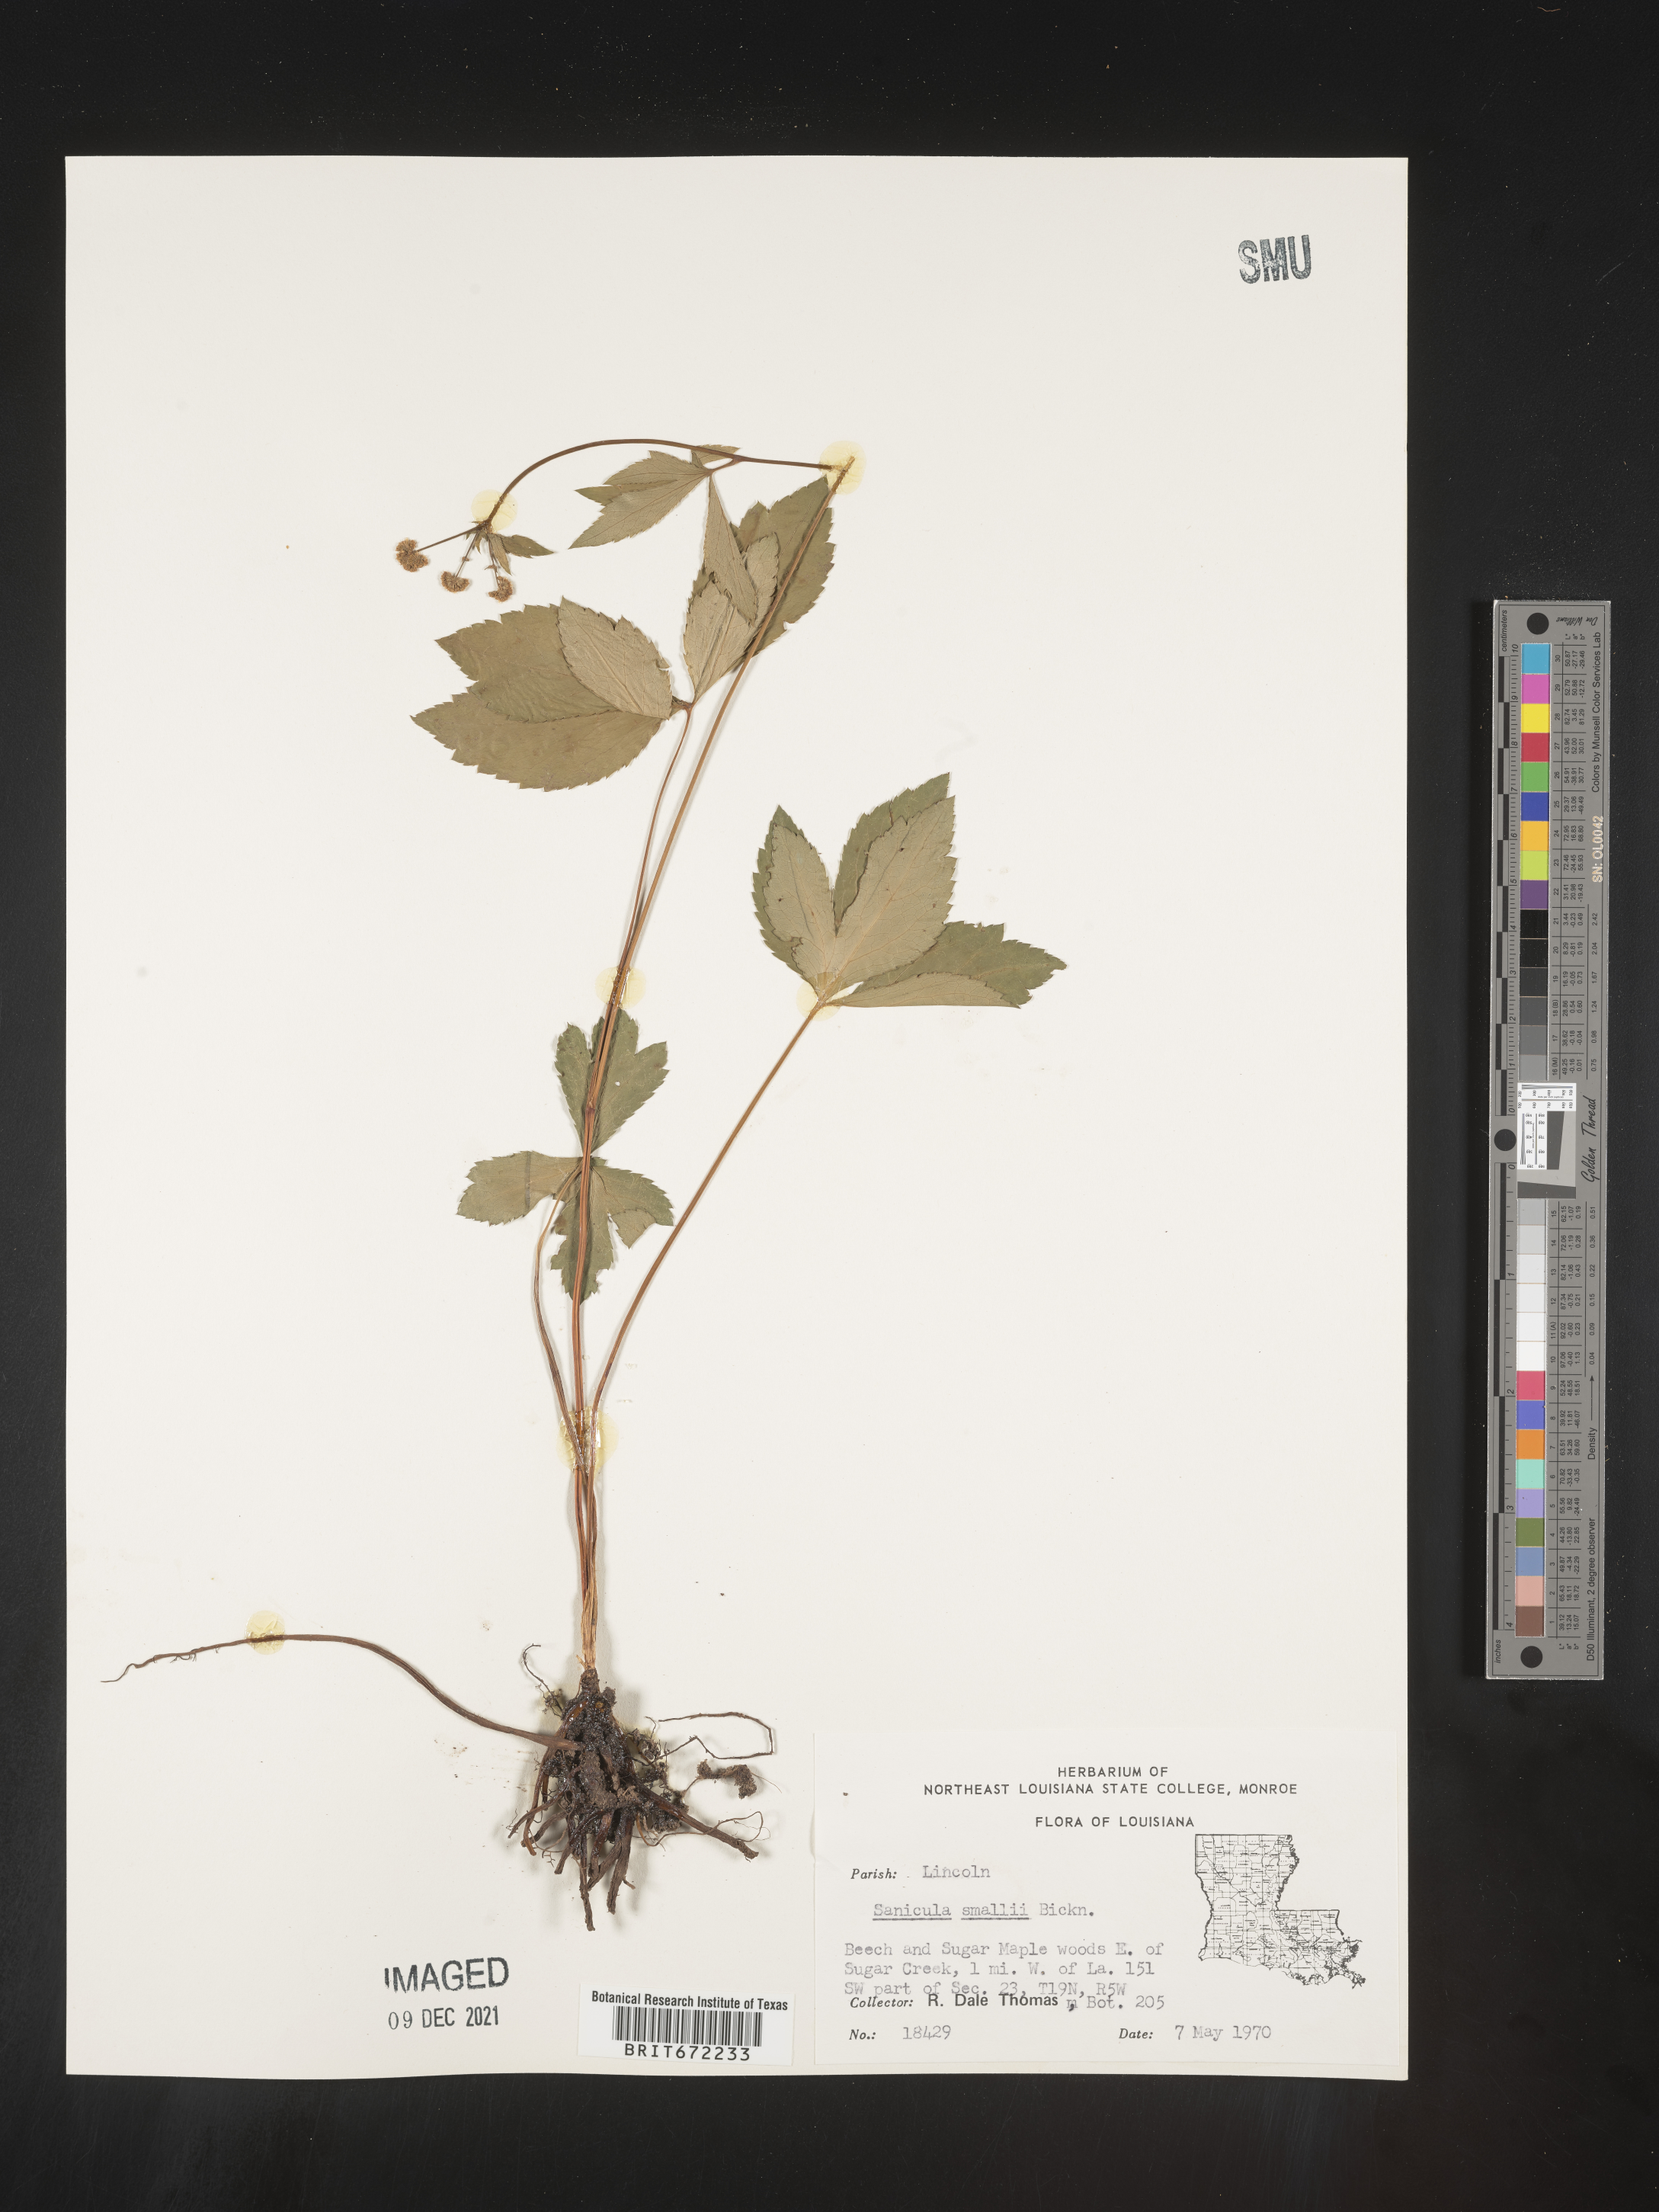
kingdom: Plantae
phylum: Tracheophyta
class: Magnoliopsida
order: Apiales
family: Apiaceae
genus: Sanicula
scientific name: Sanicula
